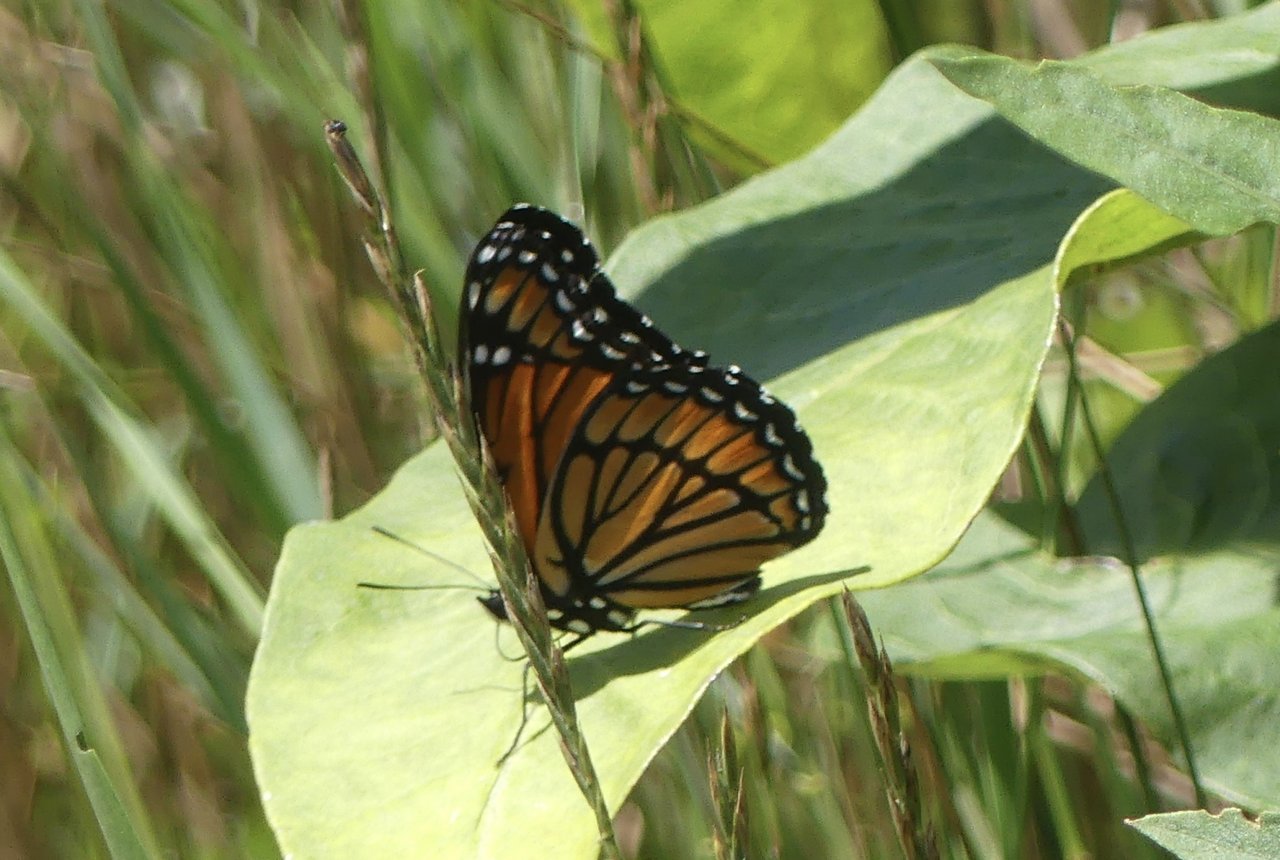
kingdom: Animalia
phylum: Arthropoda
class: Insecta
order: Lepidoptera
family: Nymphalidae
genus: Limenitis
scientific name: Limenitis archippus
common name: Viceroy
